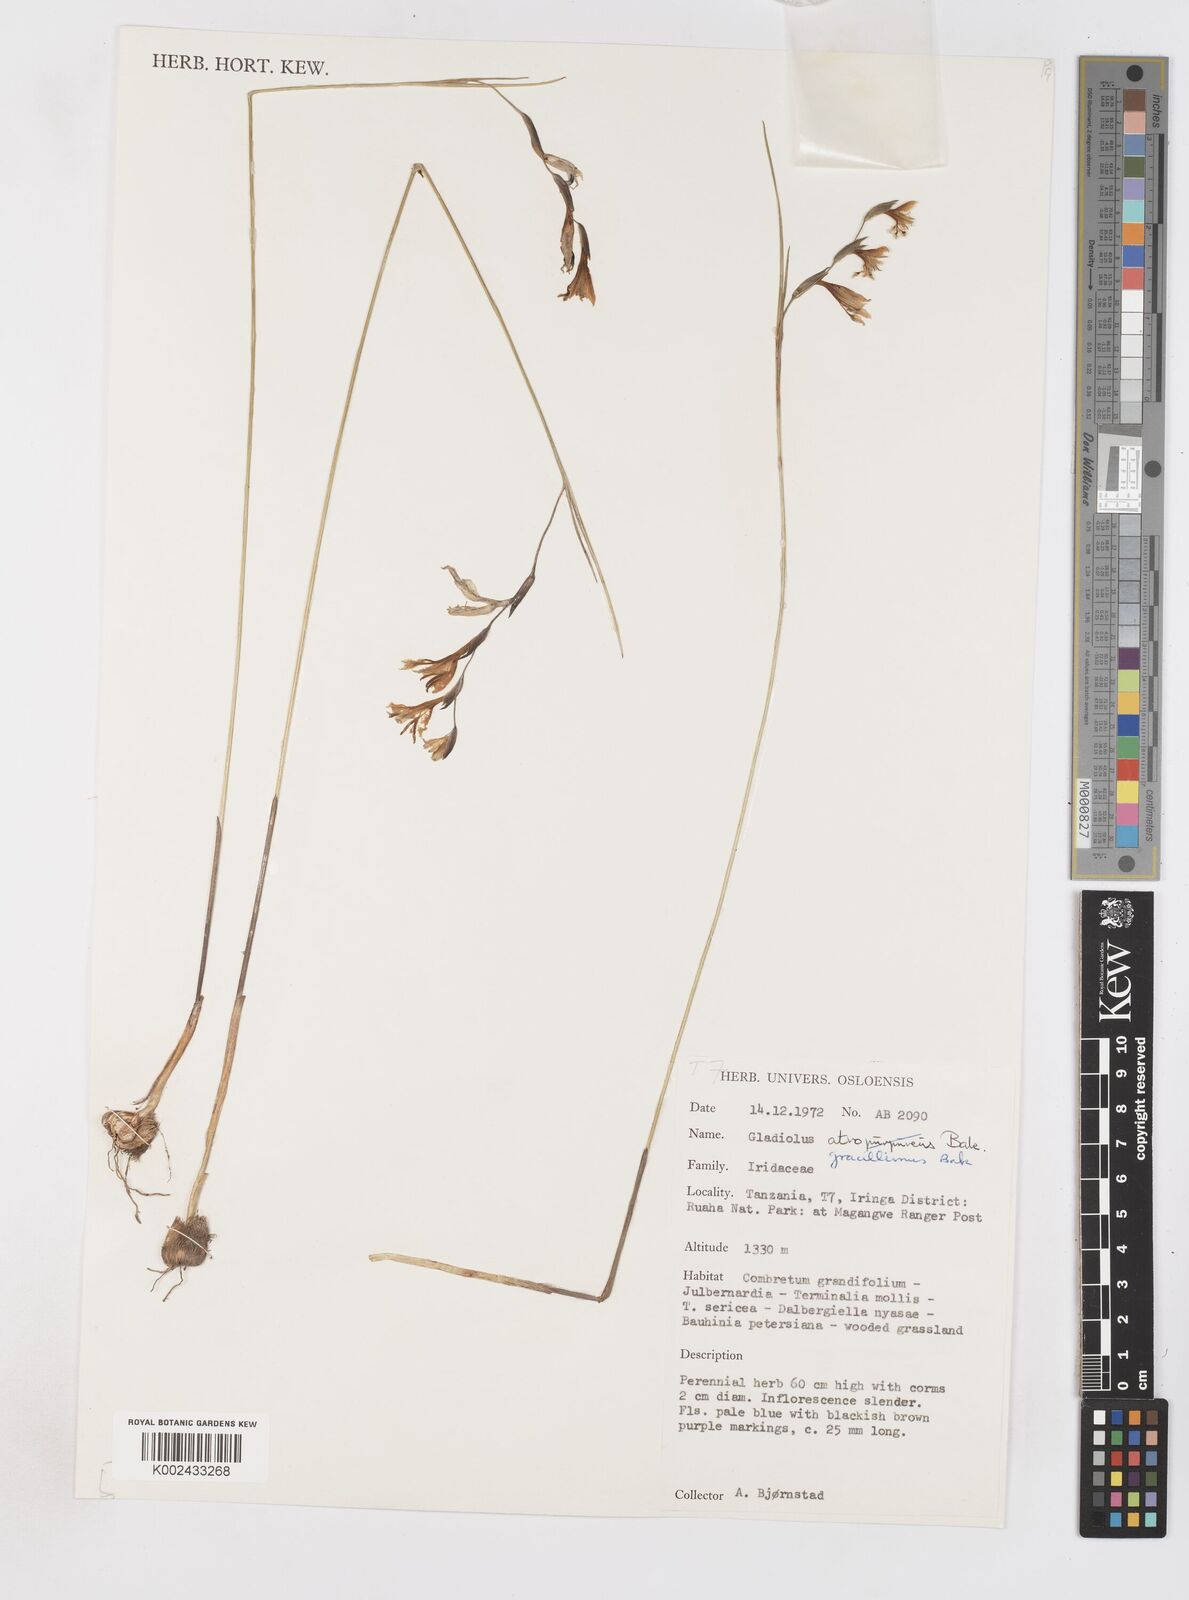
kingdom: Plantae
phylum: Tracheophyta
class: Liliopsida
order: Asparagales
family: Iridaceae
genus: Gladiolus
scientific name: Gladiolus gracillimus
